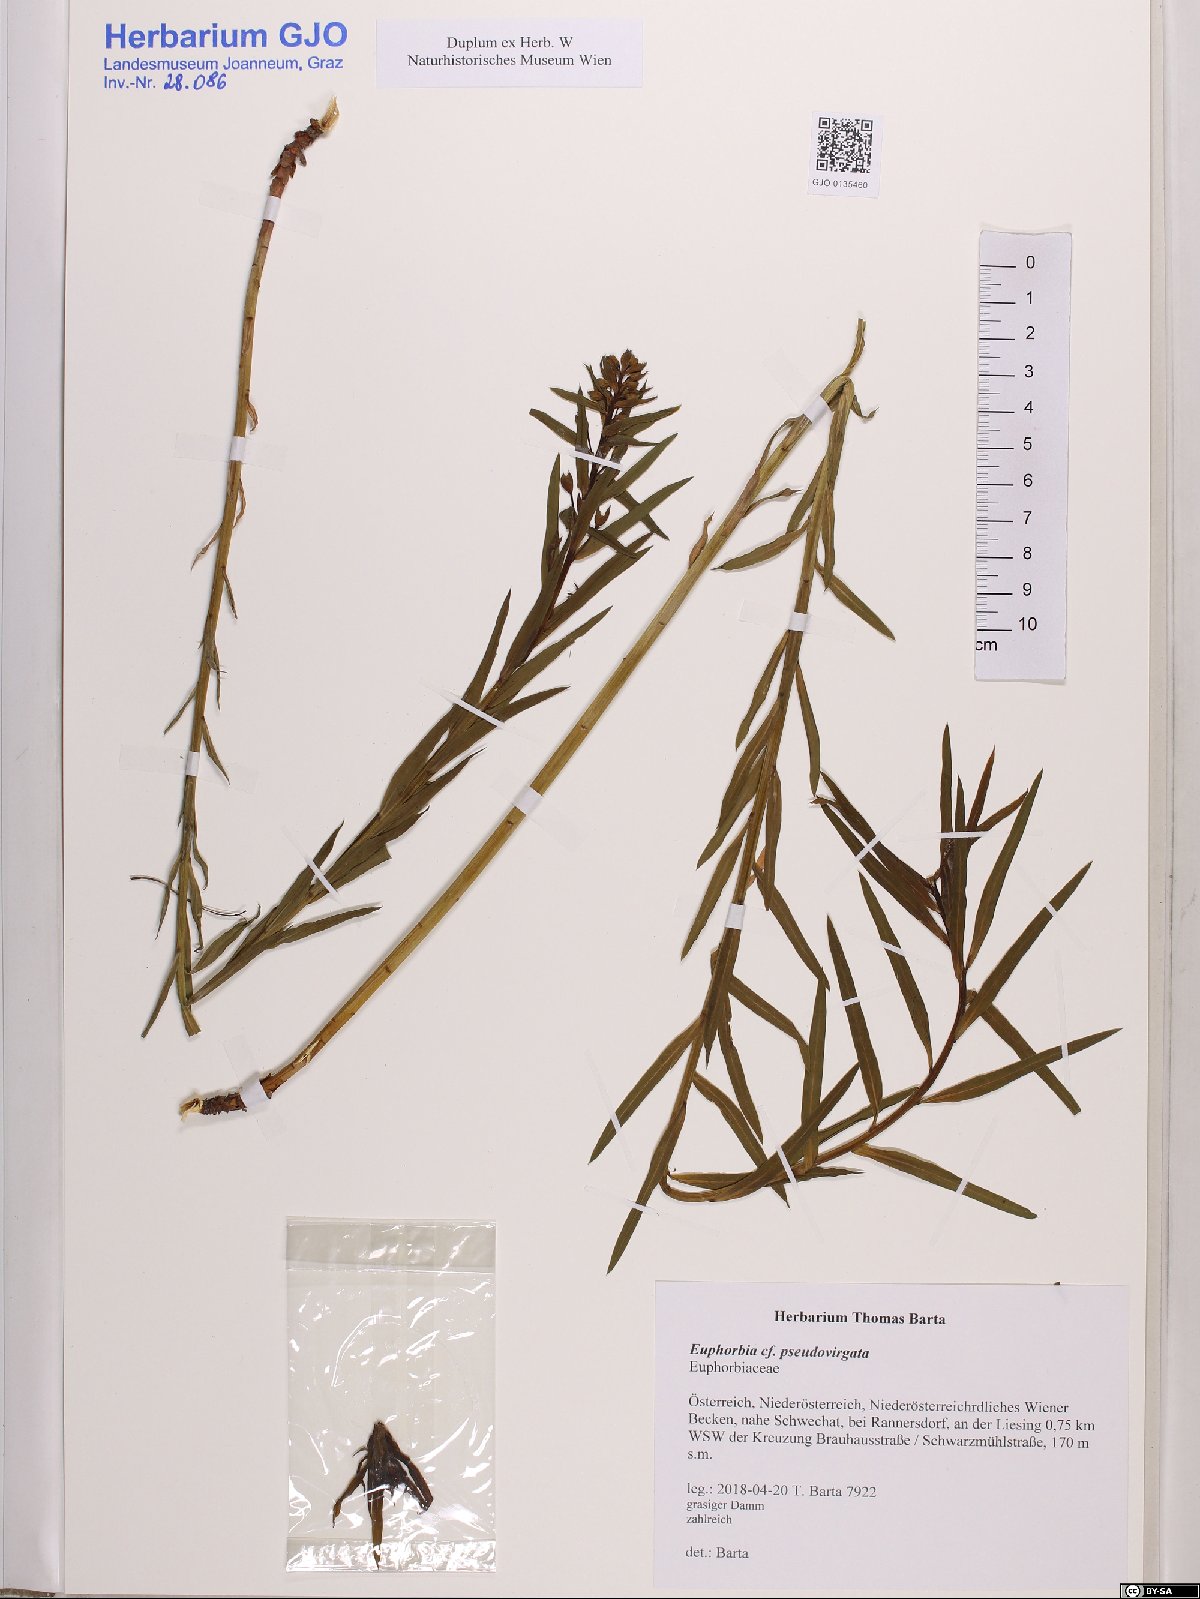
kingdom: Plantae
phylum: Tracheophyta
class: Magnoliopsida
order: Malpighiales
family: Euphorbiaceae
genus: Euphorbia
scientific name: Euphorbia virgata
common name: Leafy spurge
